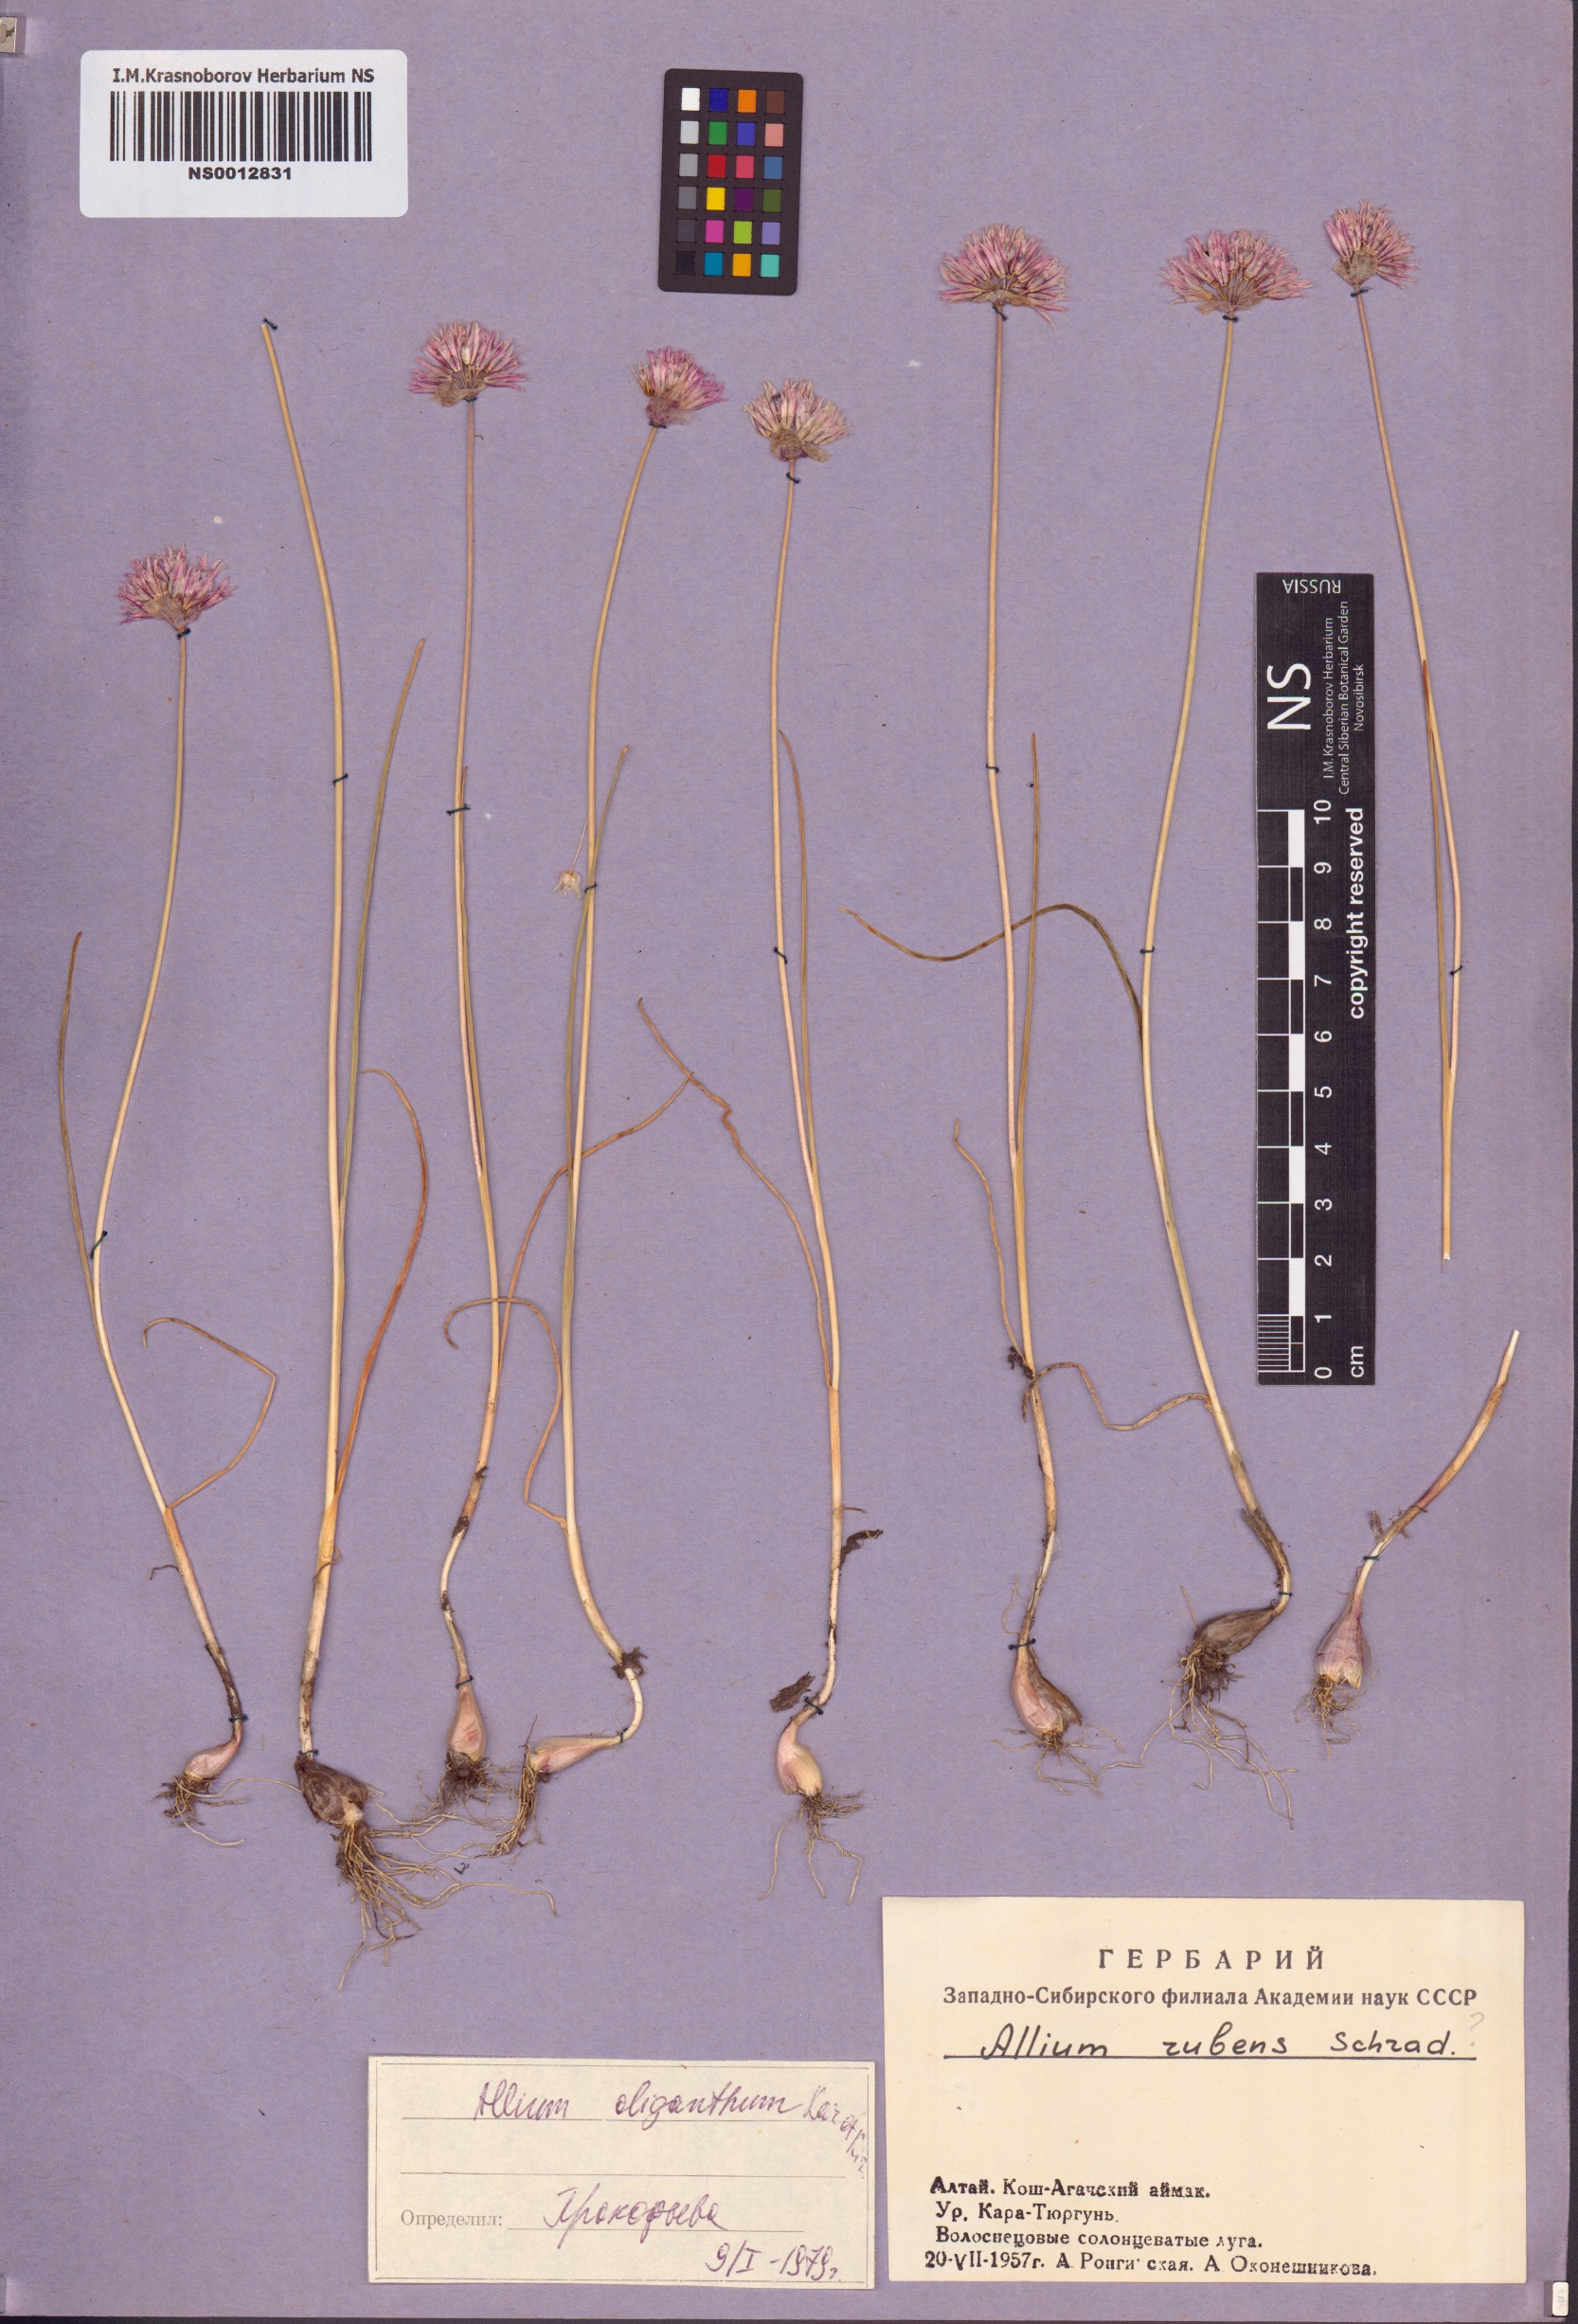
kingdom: Plantae
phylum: Tracheophyta
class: Liliopsida
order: Asparagales
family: Amaryllidaceae
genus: Allium
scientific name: Allium oliganthum
